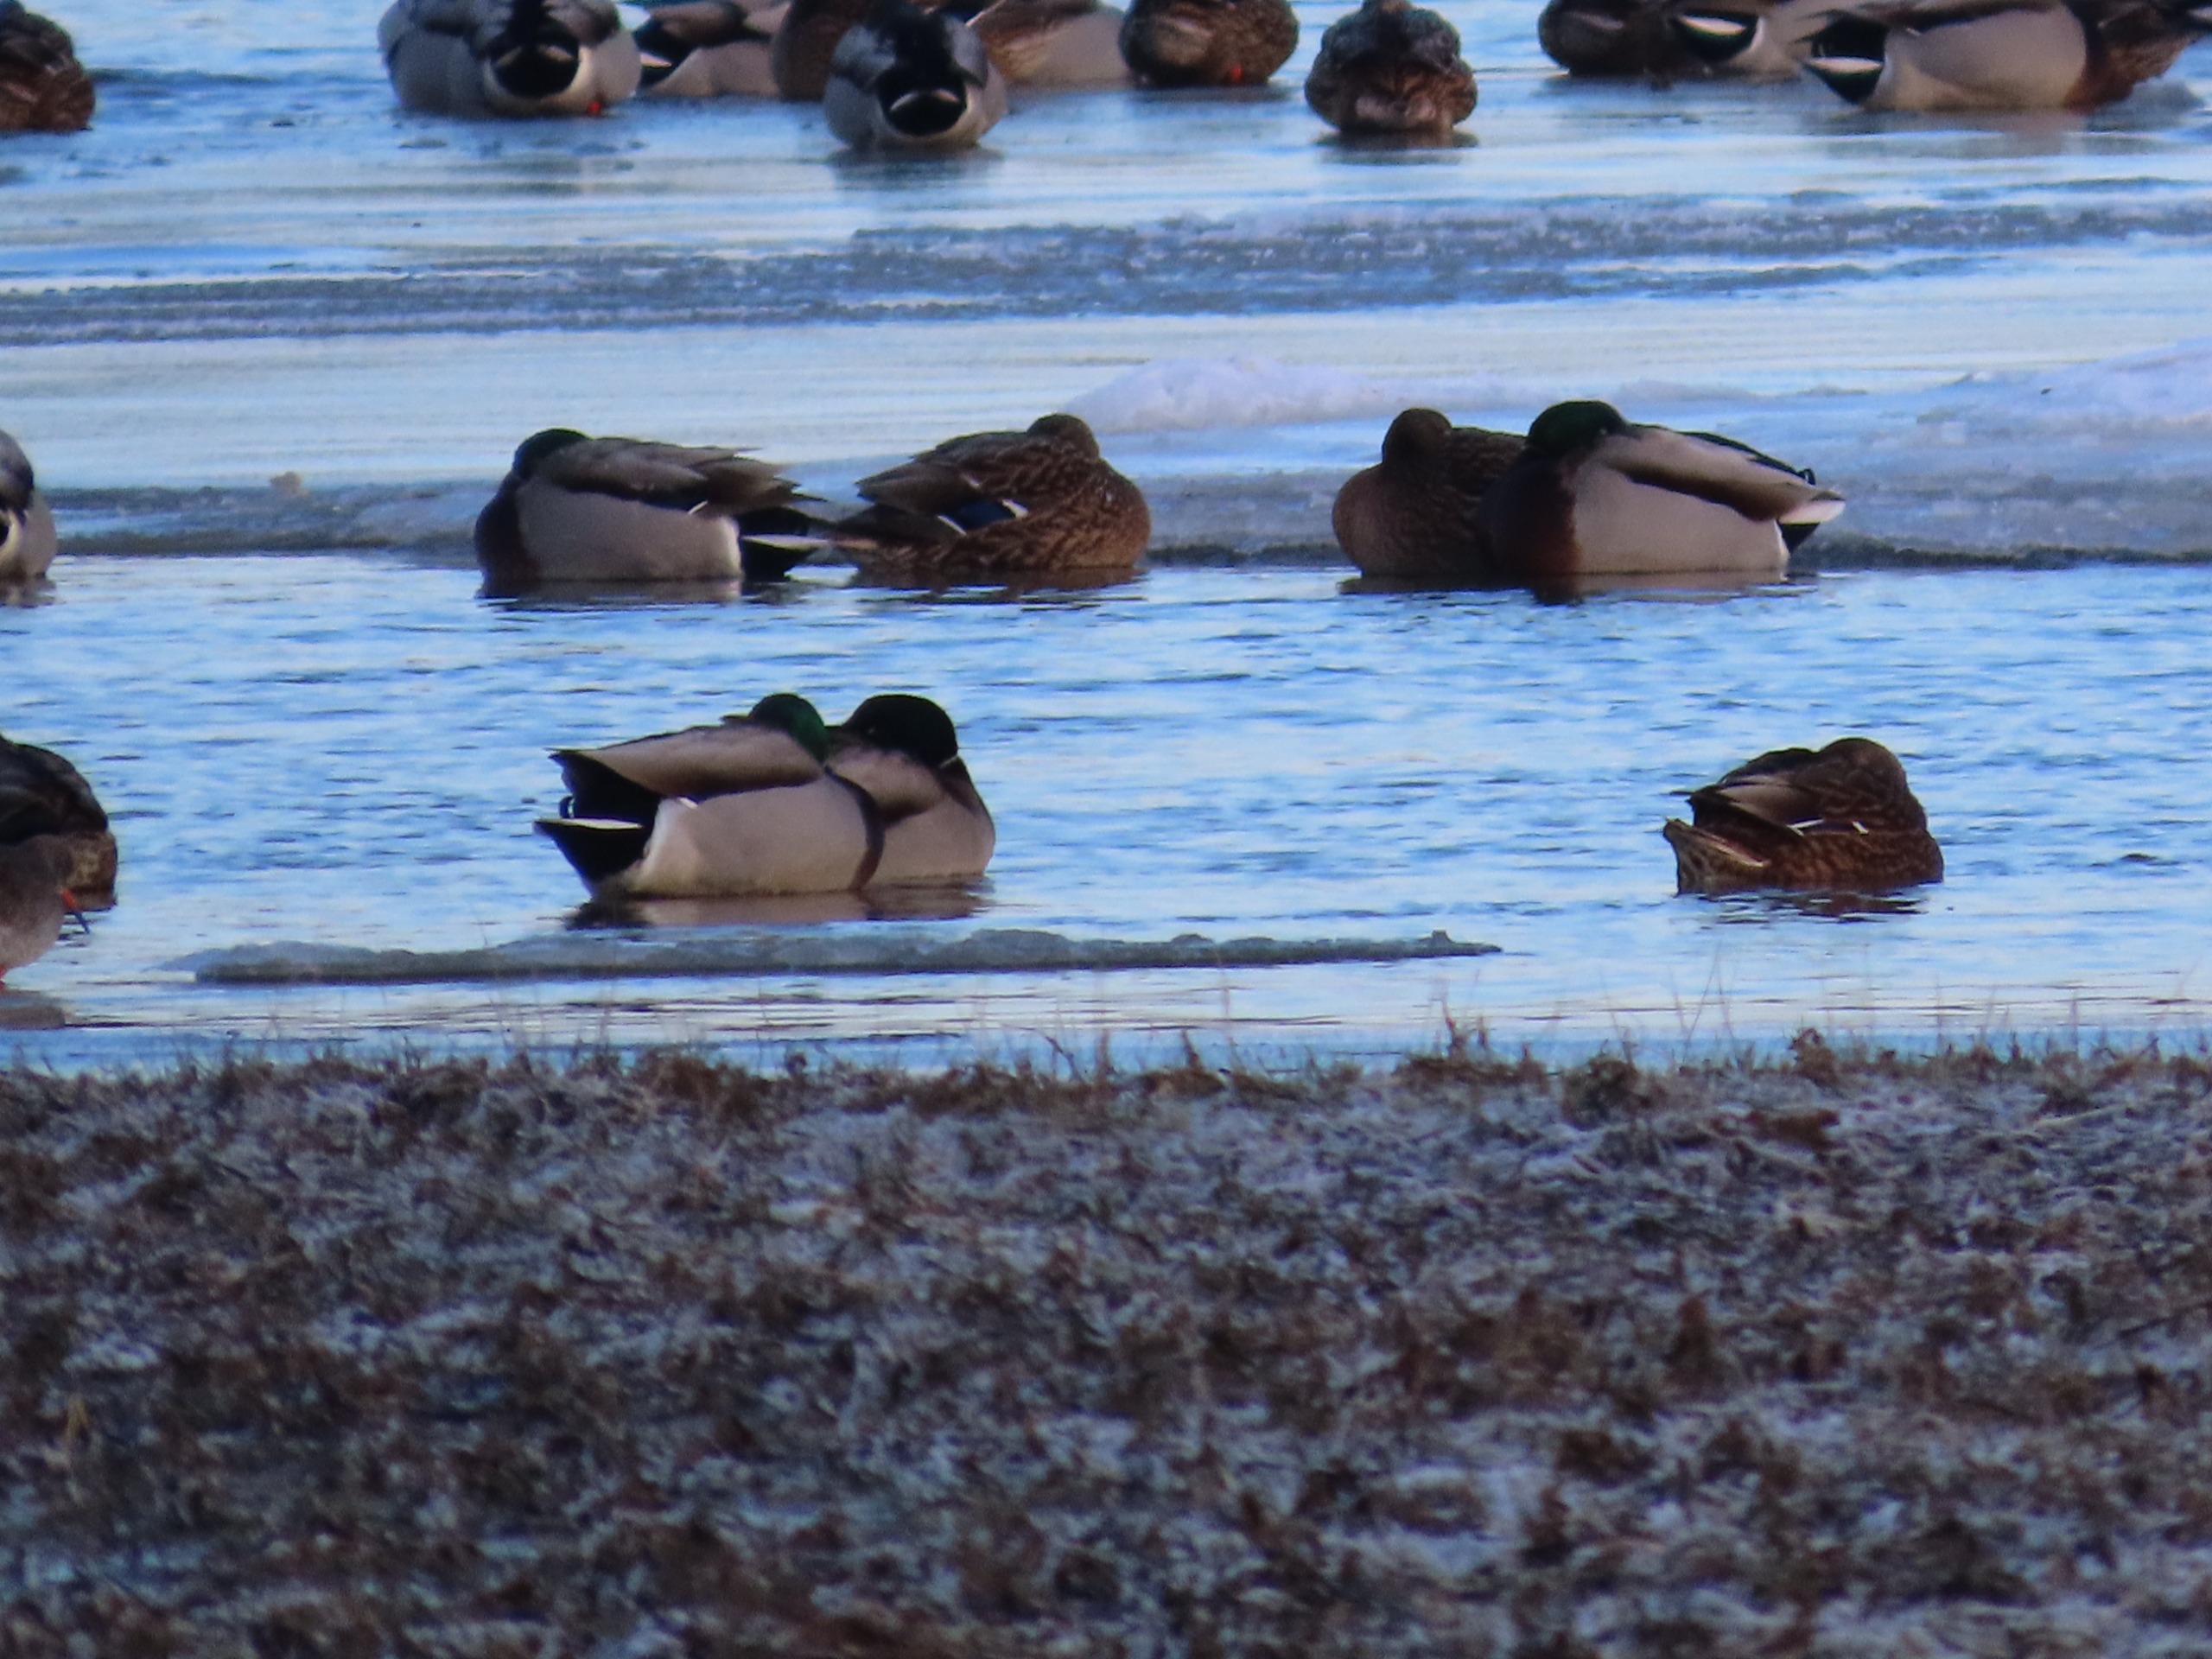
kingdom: Animalia
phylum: Chordata
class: Aves
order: Anseriformes
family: Anatidae
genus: Anas
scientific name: Anas platyrhynchos
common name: Gråand
